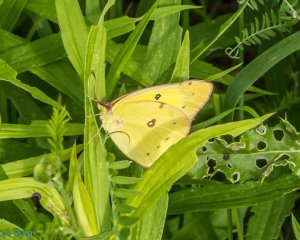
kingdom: Animalia
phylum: Arthropoda
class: Insecta
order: Lepidoptera
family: Pieridae
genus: Colias
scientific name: Colias philodice
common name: Clouded Sulphur
